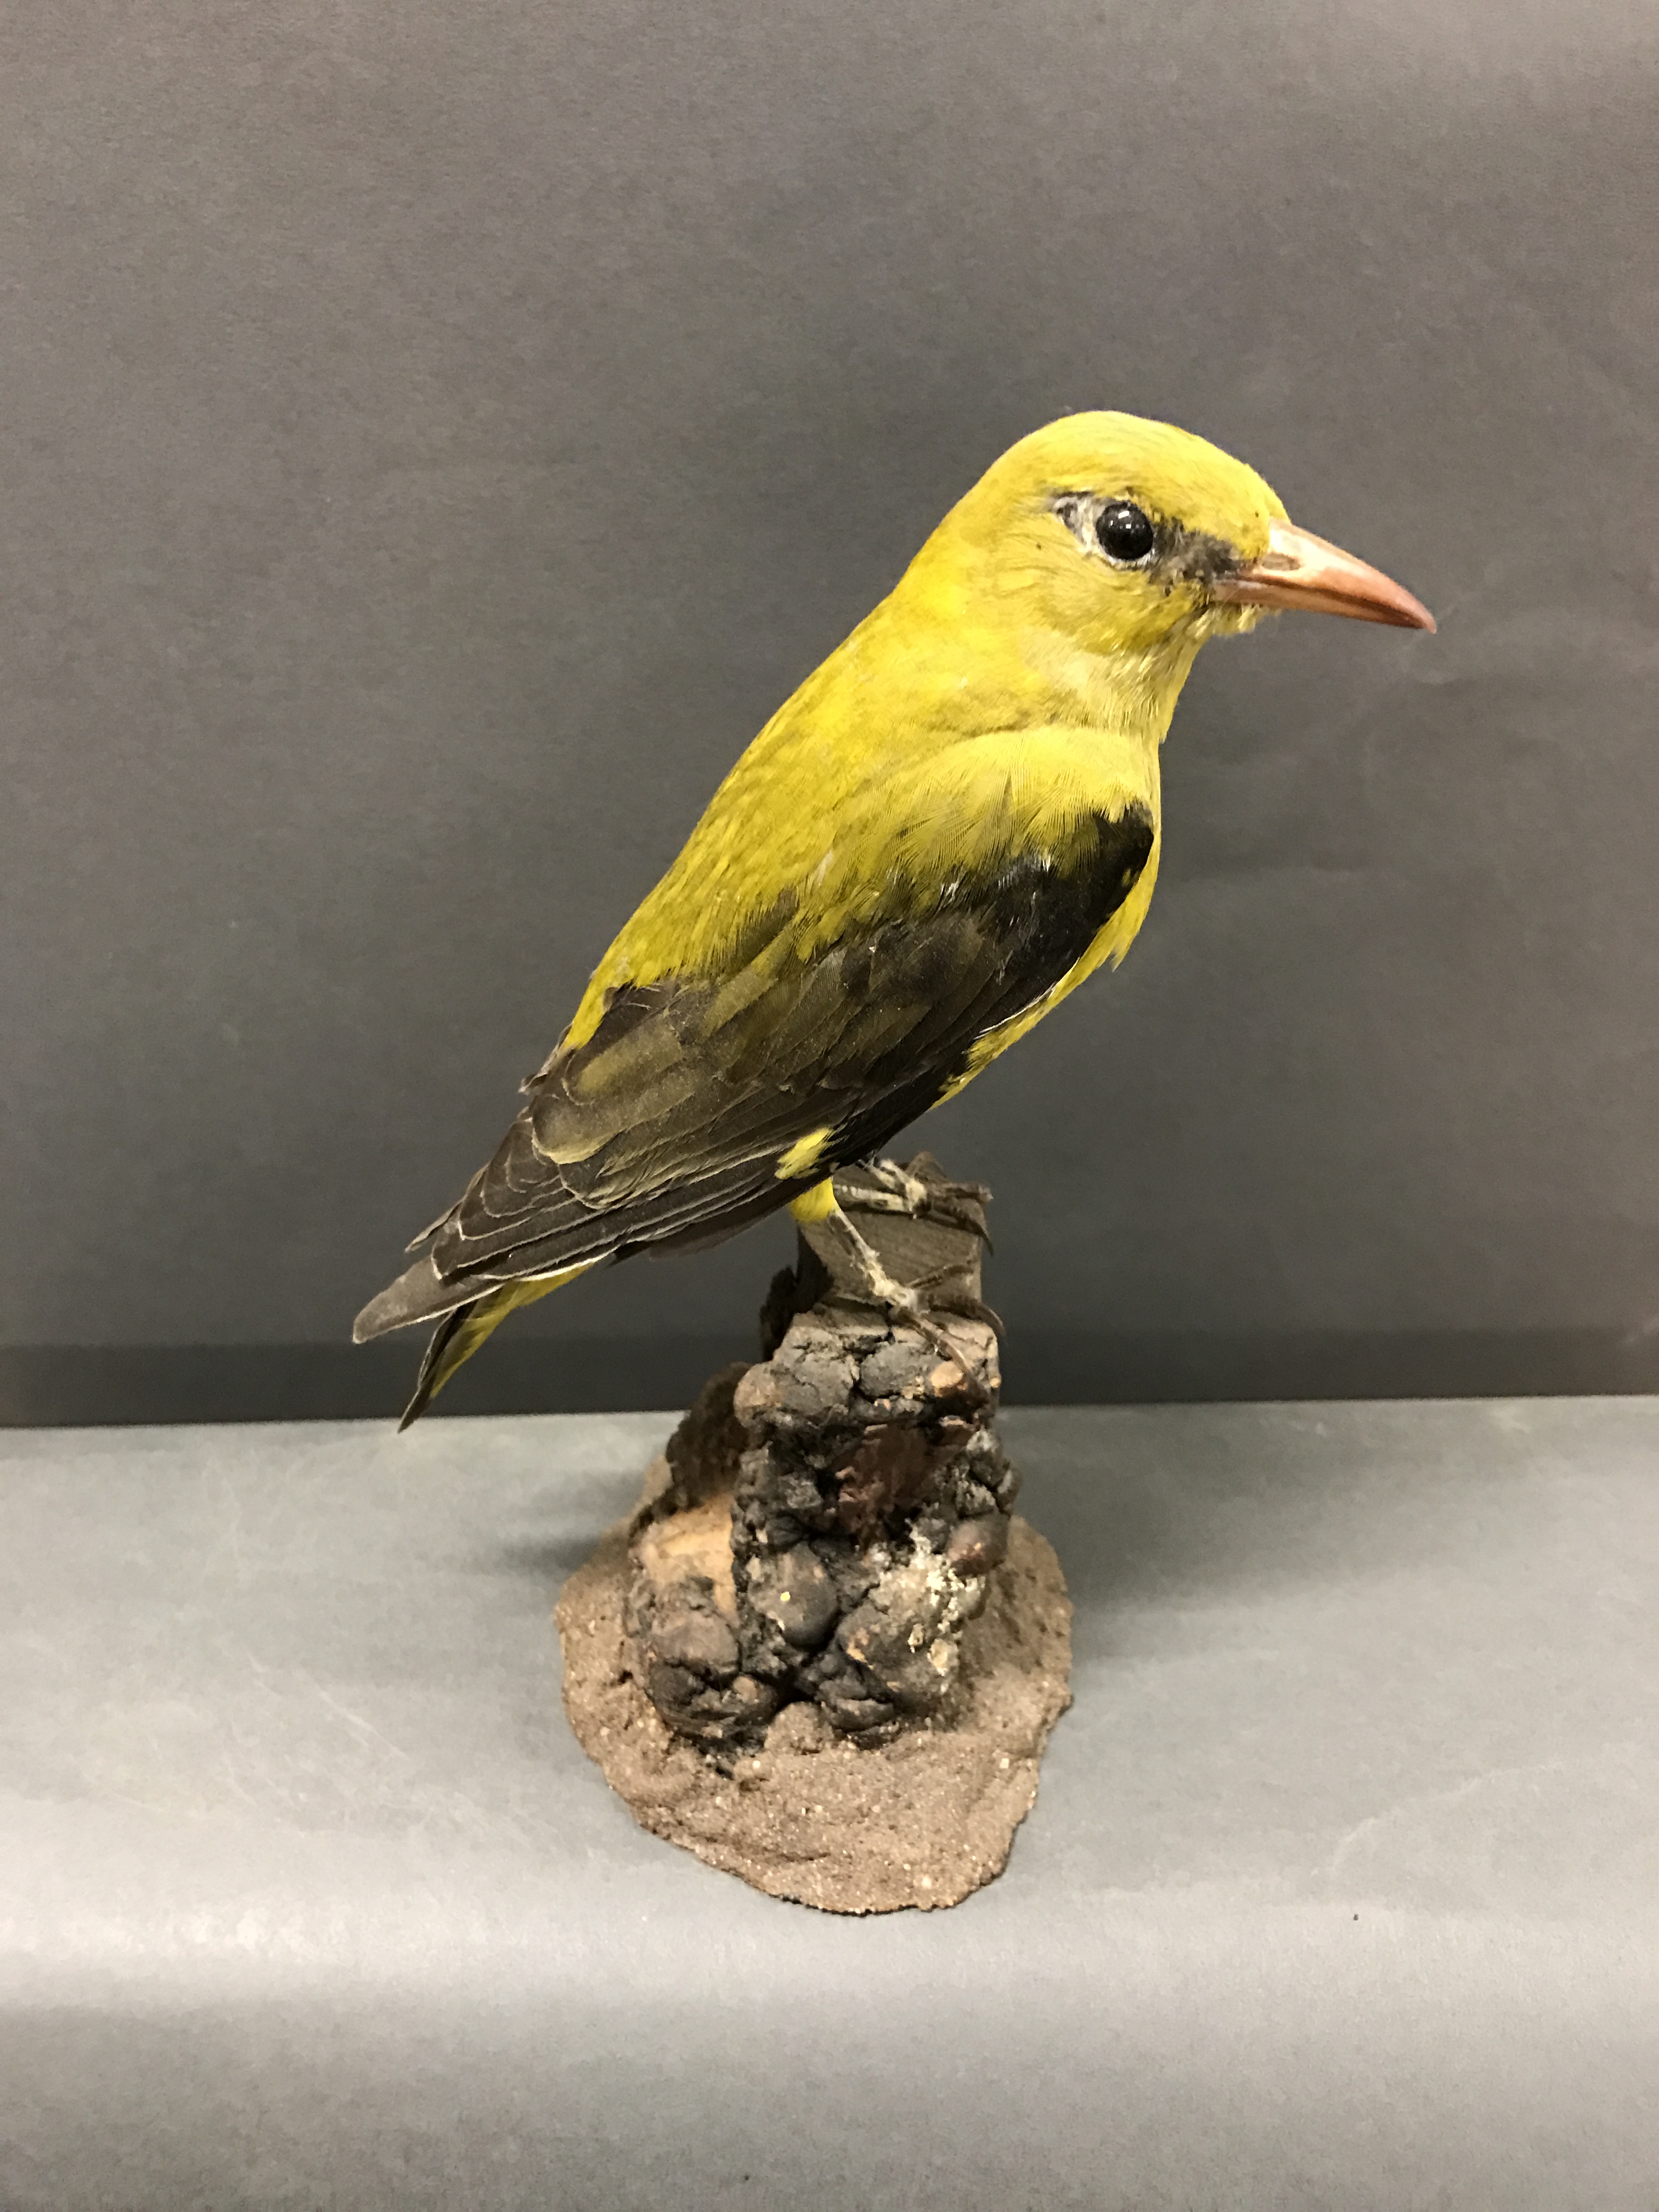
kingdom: Animalia
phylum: Chordata
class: Aves
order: Passeriformes
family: Oriolidae
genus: Oriolus
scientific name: Oriolus oriolus
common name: Eurasian golden oriole
